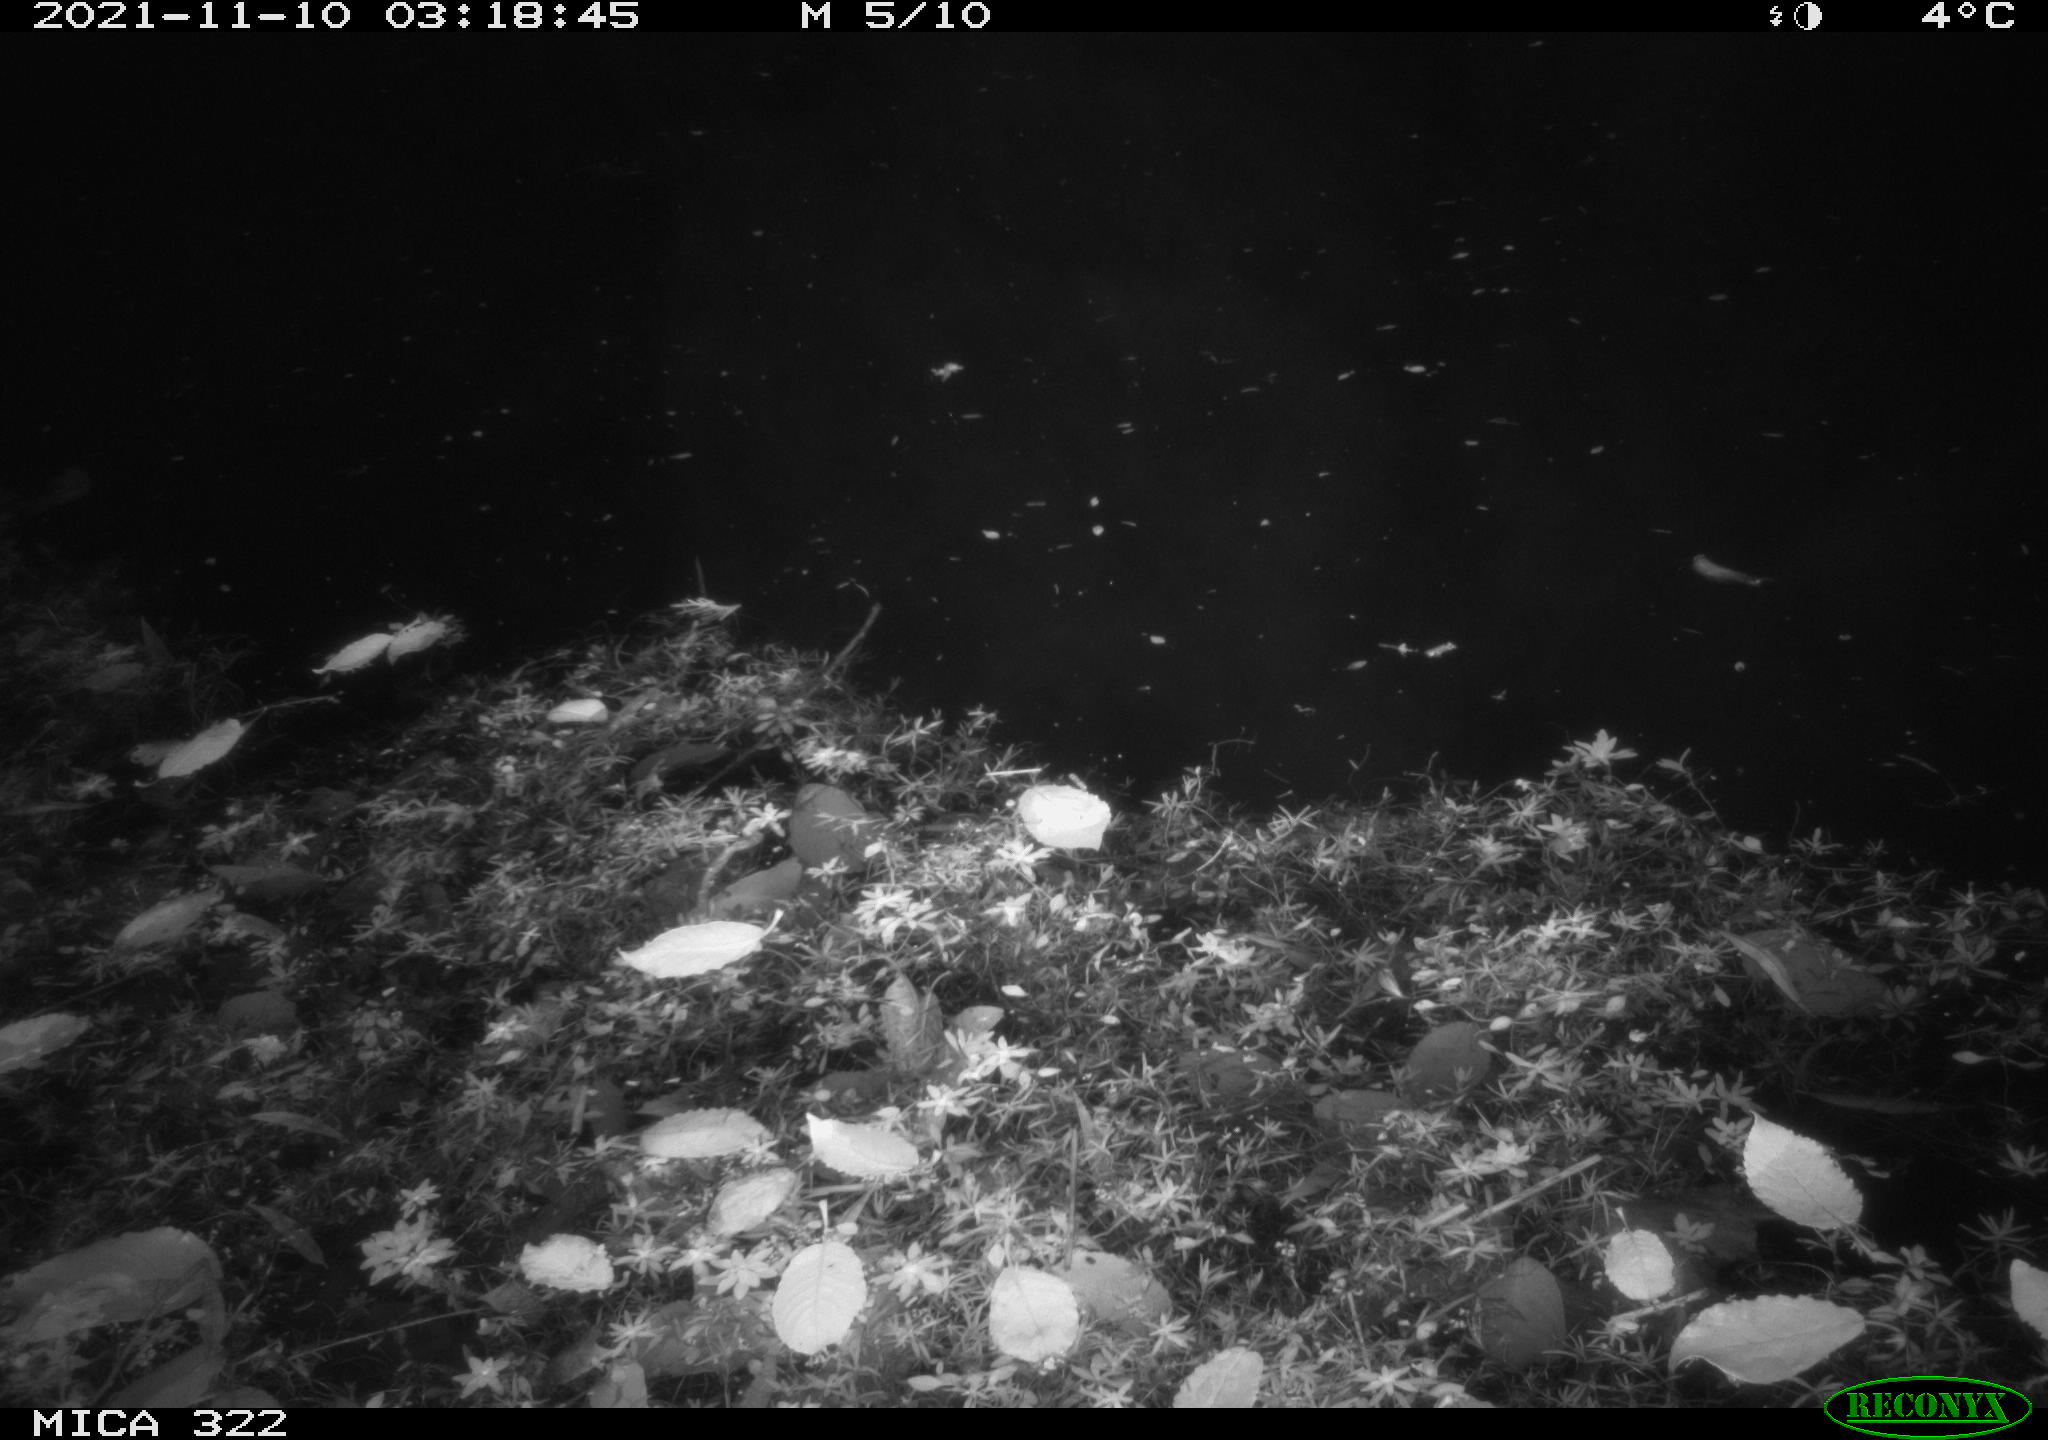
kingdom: Animalia
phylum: Chordata
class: Mammalia
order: Rodentia
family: Muridae
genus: Rattus
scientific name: Rattus norvegicus
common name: Brown rat
